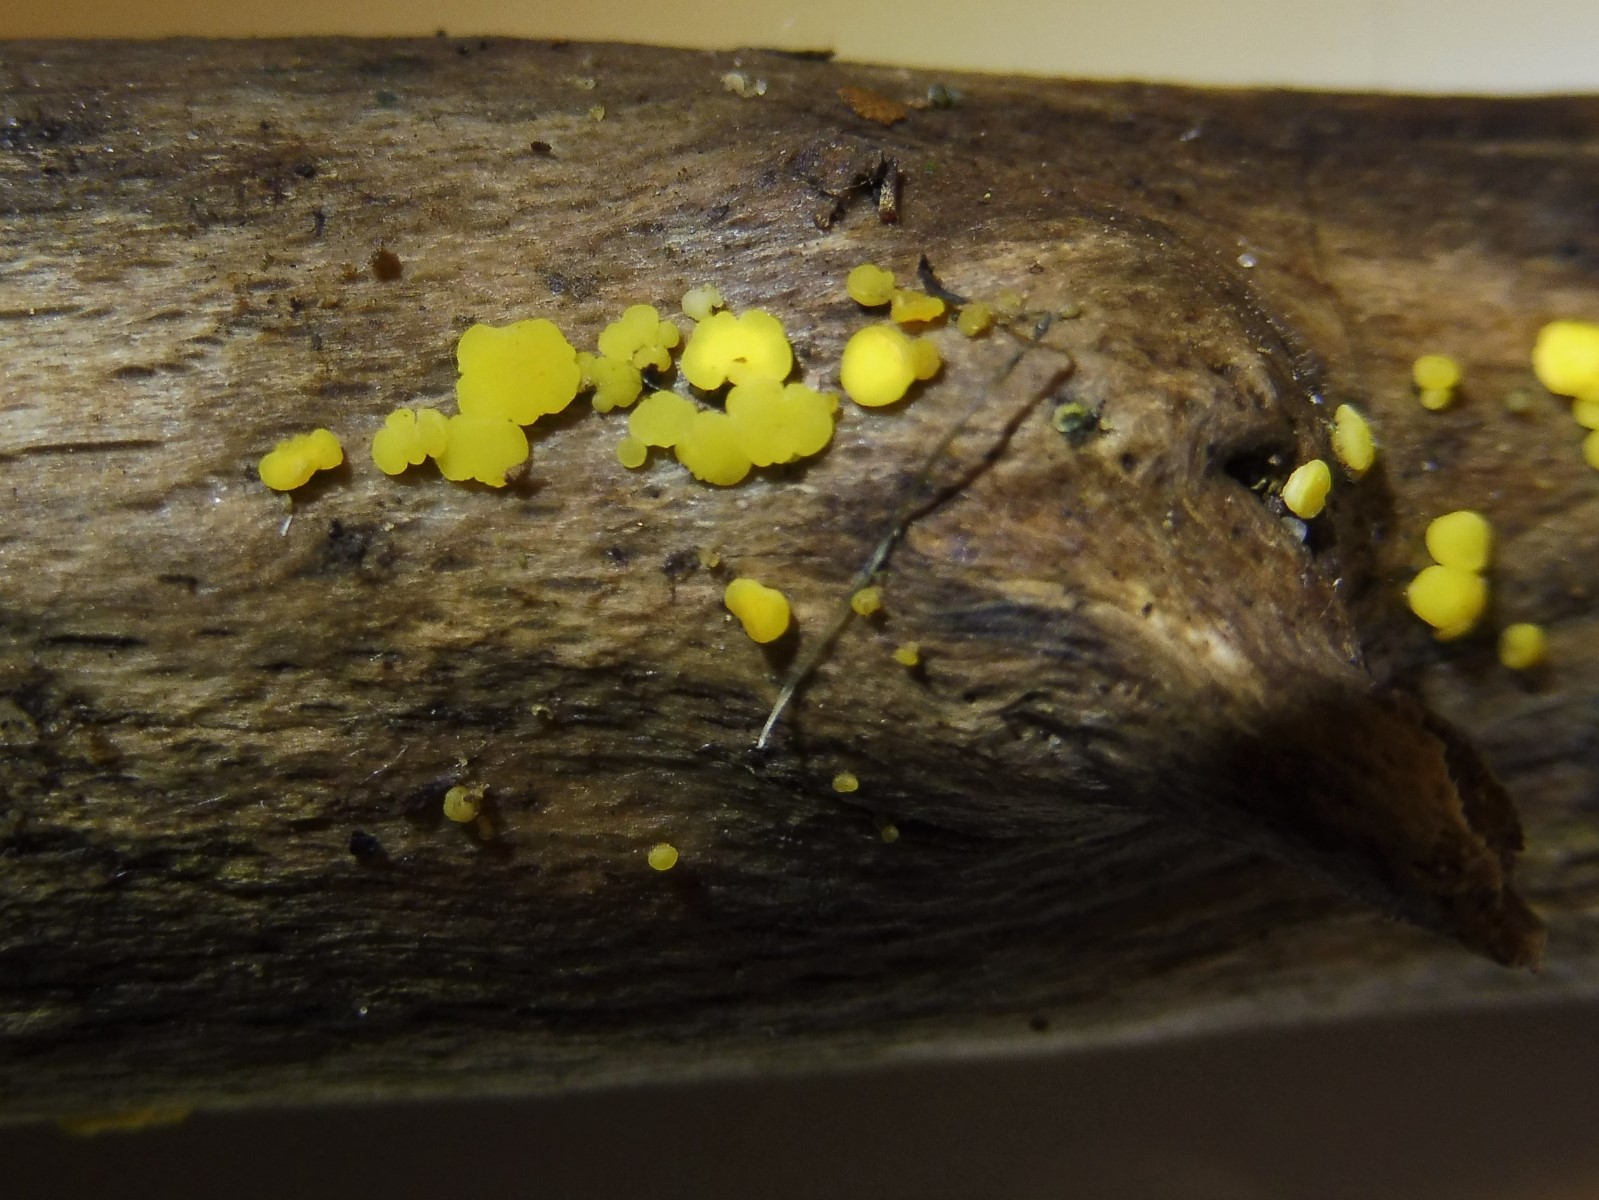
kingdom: Fungi
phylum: Ascomycota
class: Leotiomycetes
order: Helotiales
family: Pezizellaceae
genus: Calycina
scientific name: Calycina citrina
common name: almindelig gulskive
